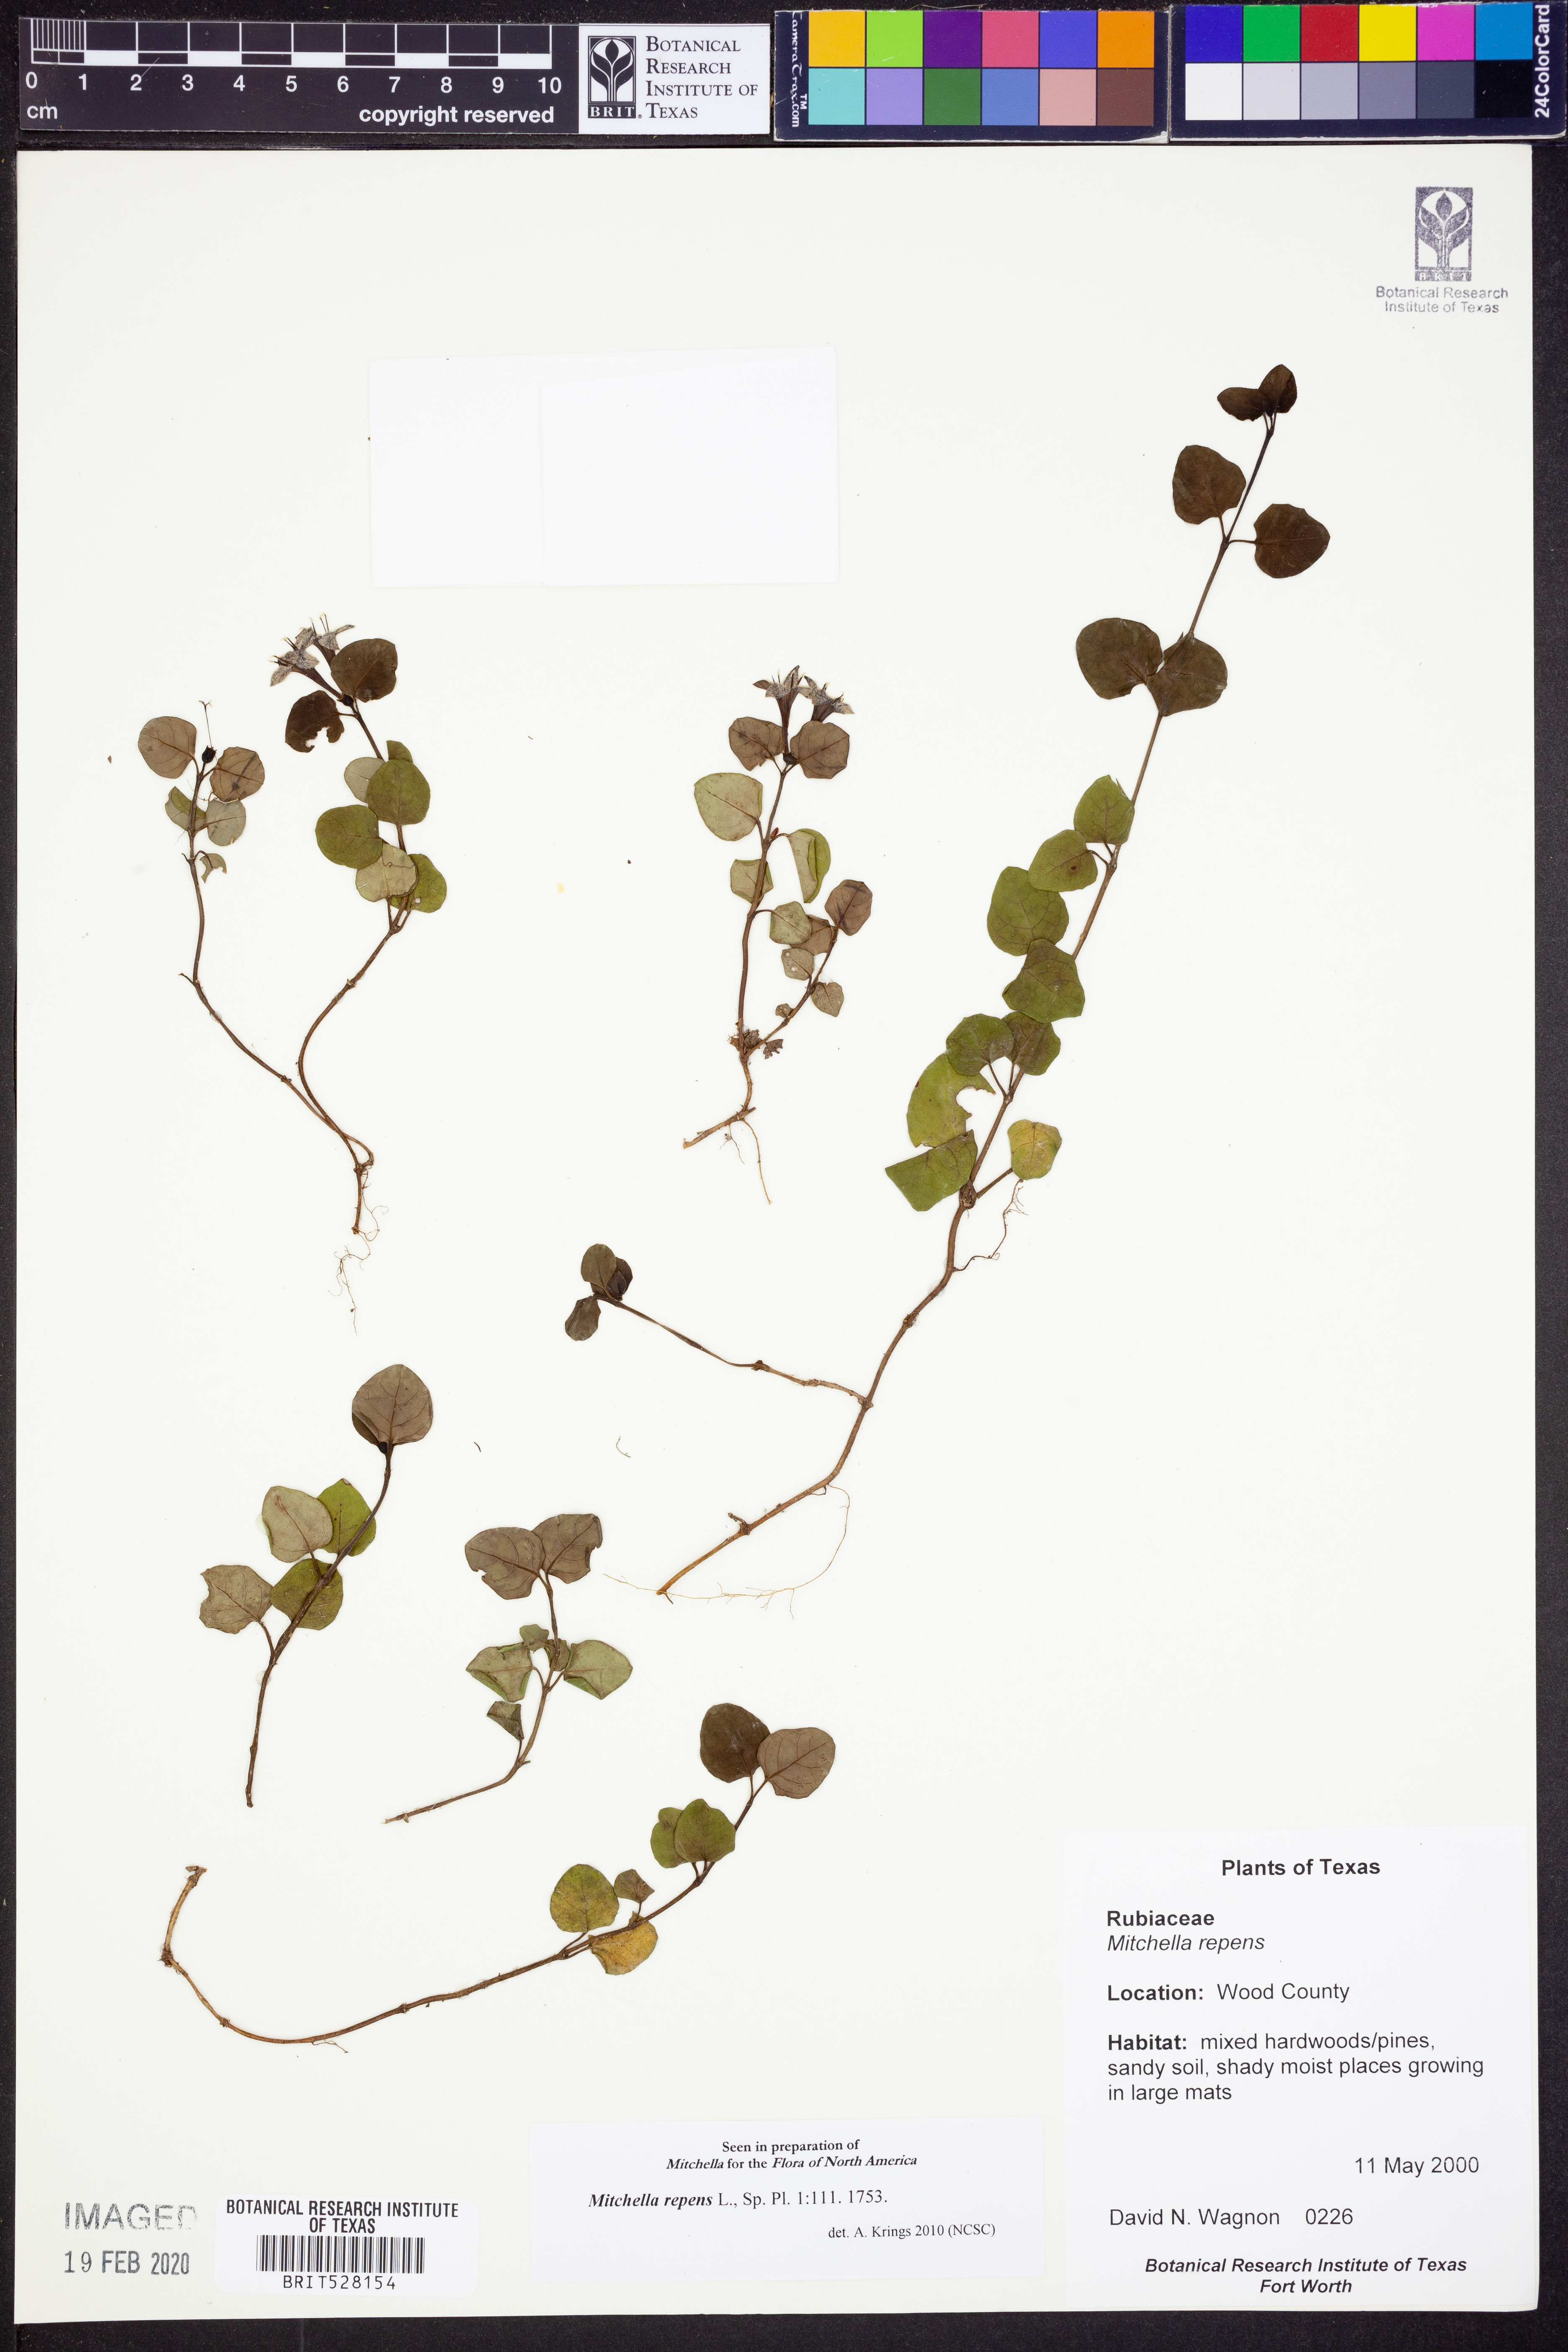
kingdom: Plantae
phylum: Tracheophyta
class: Magnoliopsida
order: Gentianales
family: Rubiaceae
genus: Mitchella
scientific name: Mitchella repens
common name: Partridge-berry
